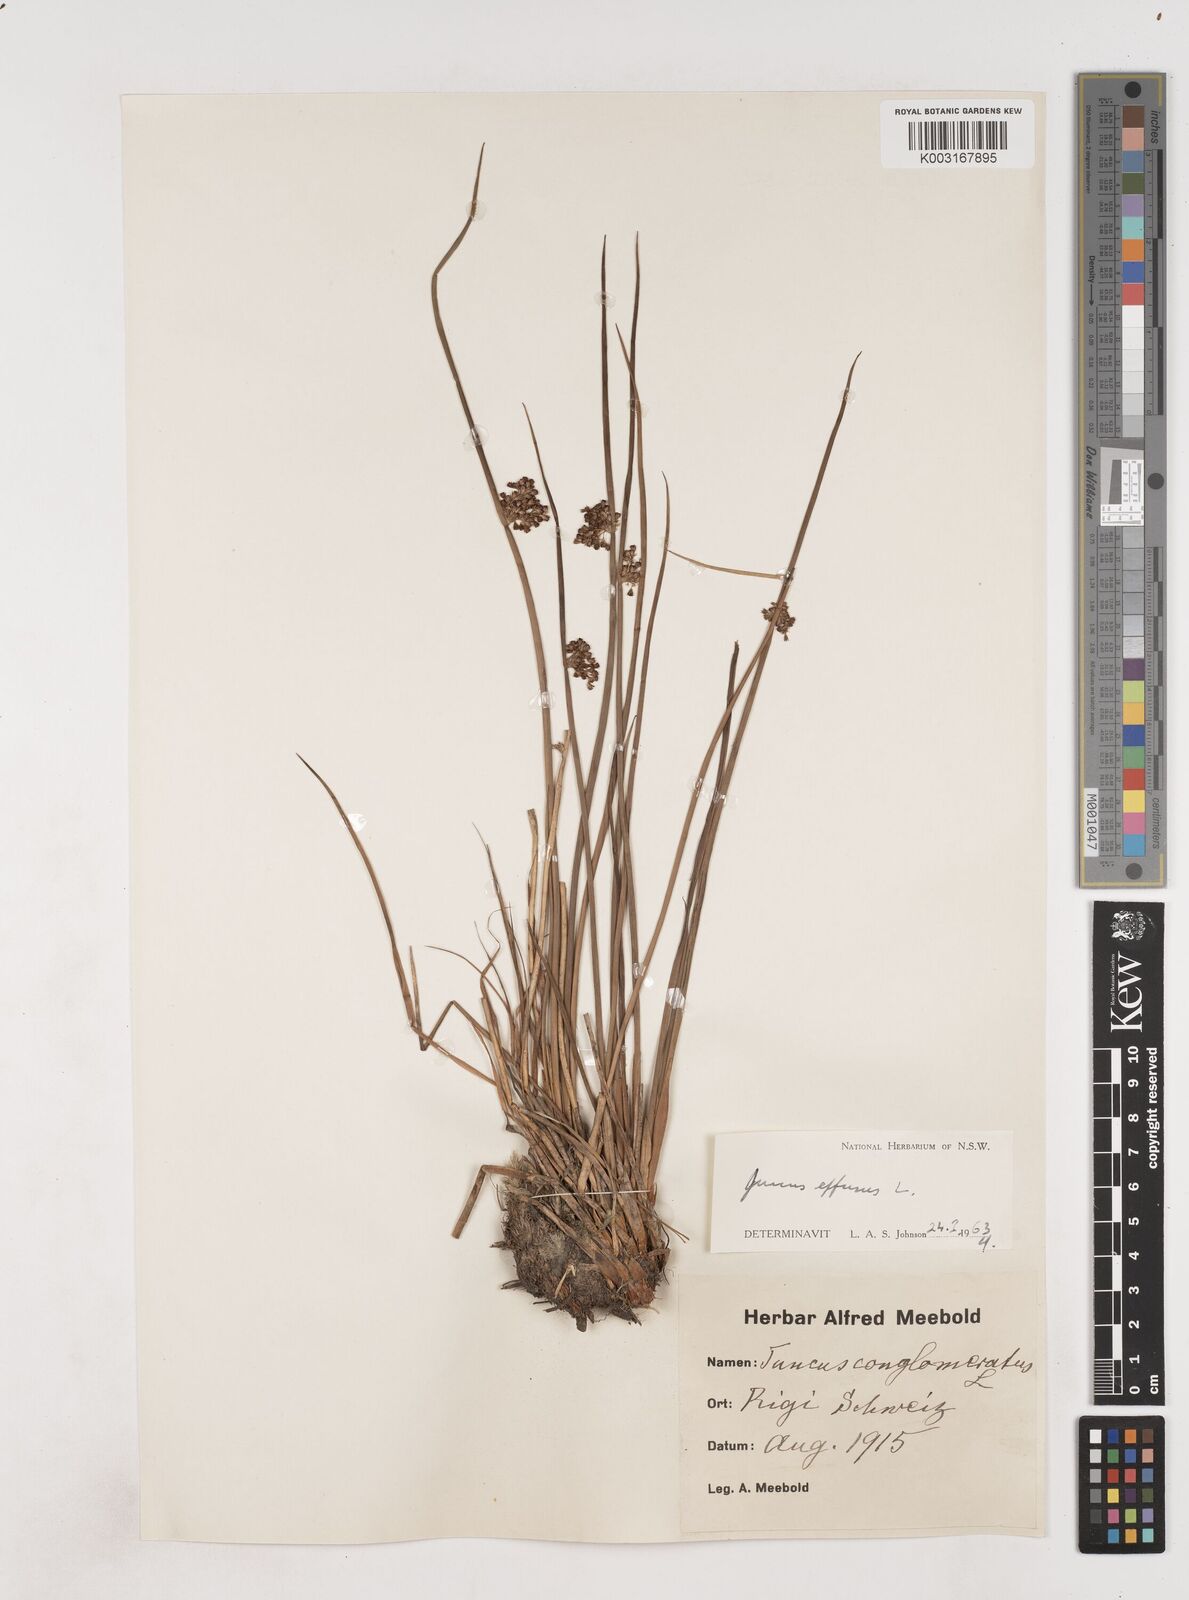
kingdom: Plantae
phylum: Tracheophyta
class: Liliopsida
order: Poales
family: Juncaceae
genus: Juncus
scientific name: Juncus effusus
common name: Soft rush
